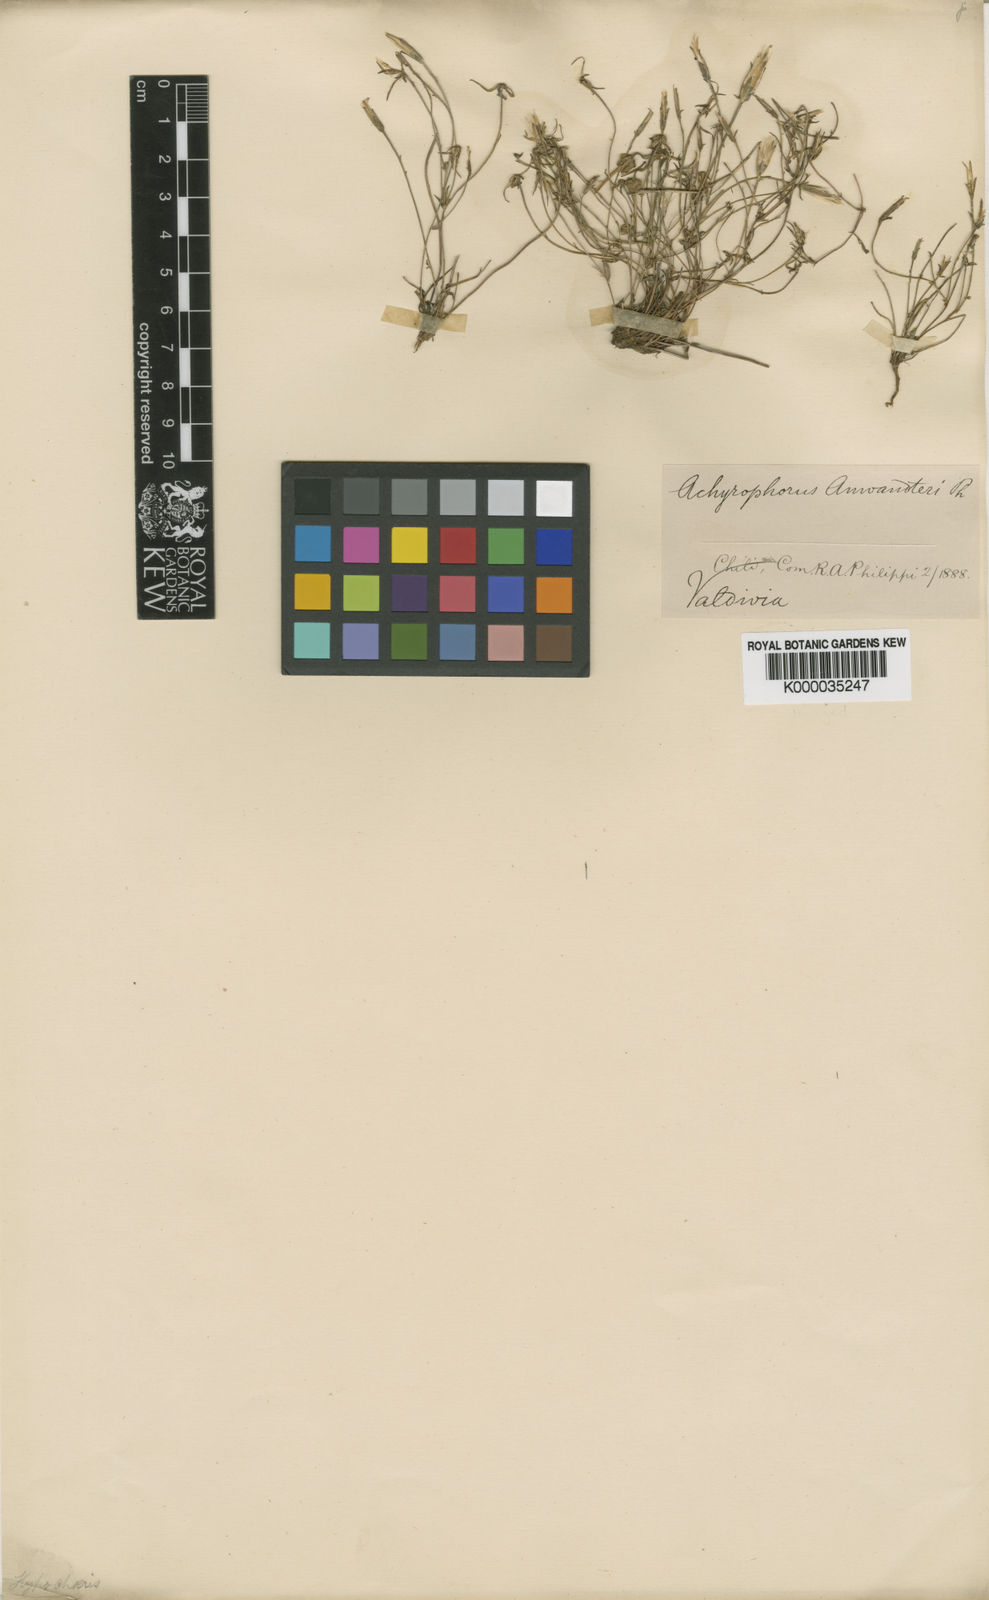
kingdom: Plantae
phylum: Tracheophyta
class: Magnoliopsida
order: Asterales
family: Asteraceae
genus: Hypochaeris
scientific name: Hypochaeris
